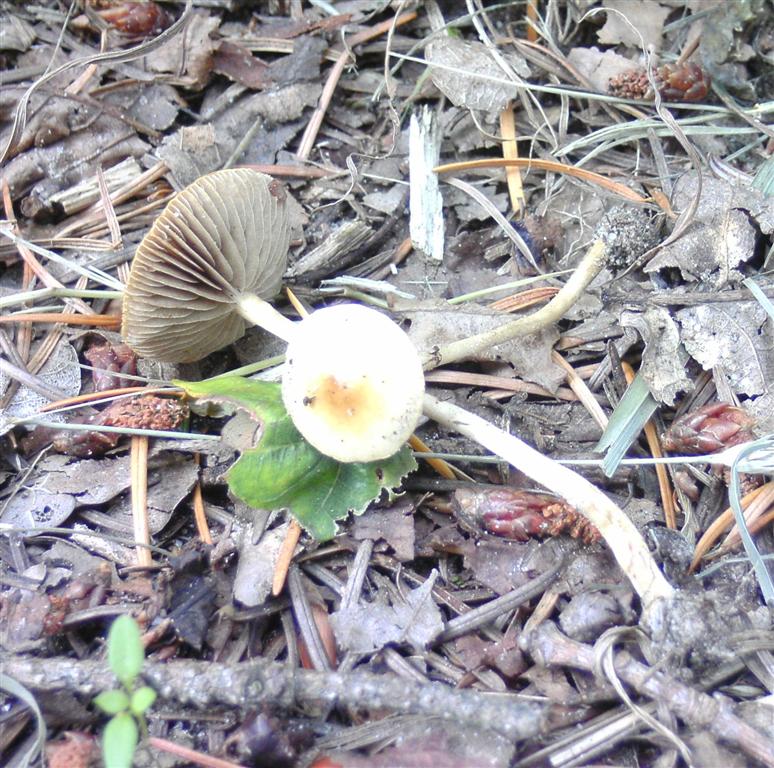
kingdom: Fungi
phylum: Basidiomycota
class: Agaricomycetes
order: Agaricales
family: Strophariaceae
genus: Agrocybe
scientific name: Agrocybe pediades
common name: almindelig agerhat
